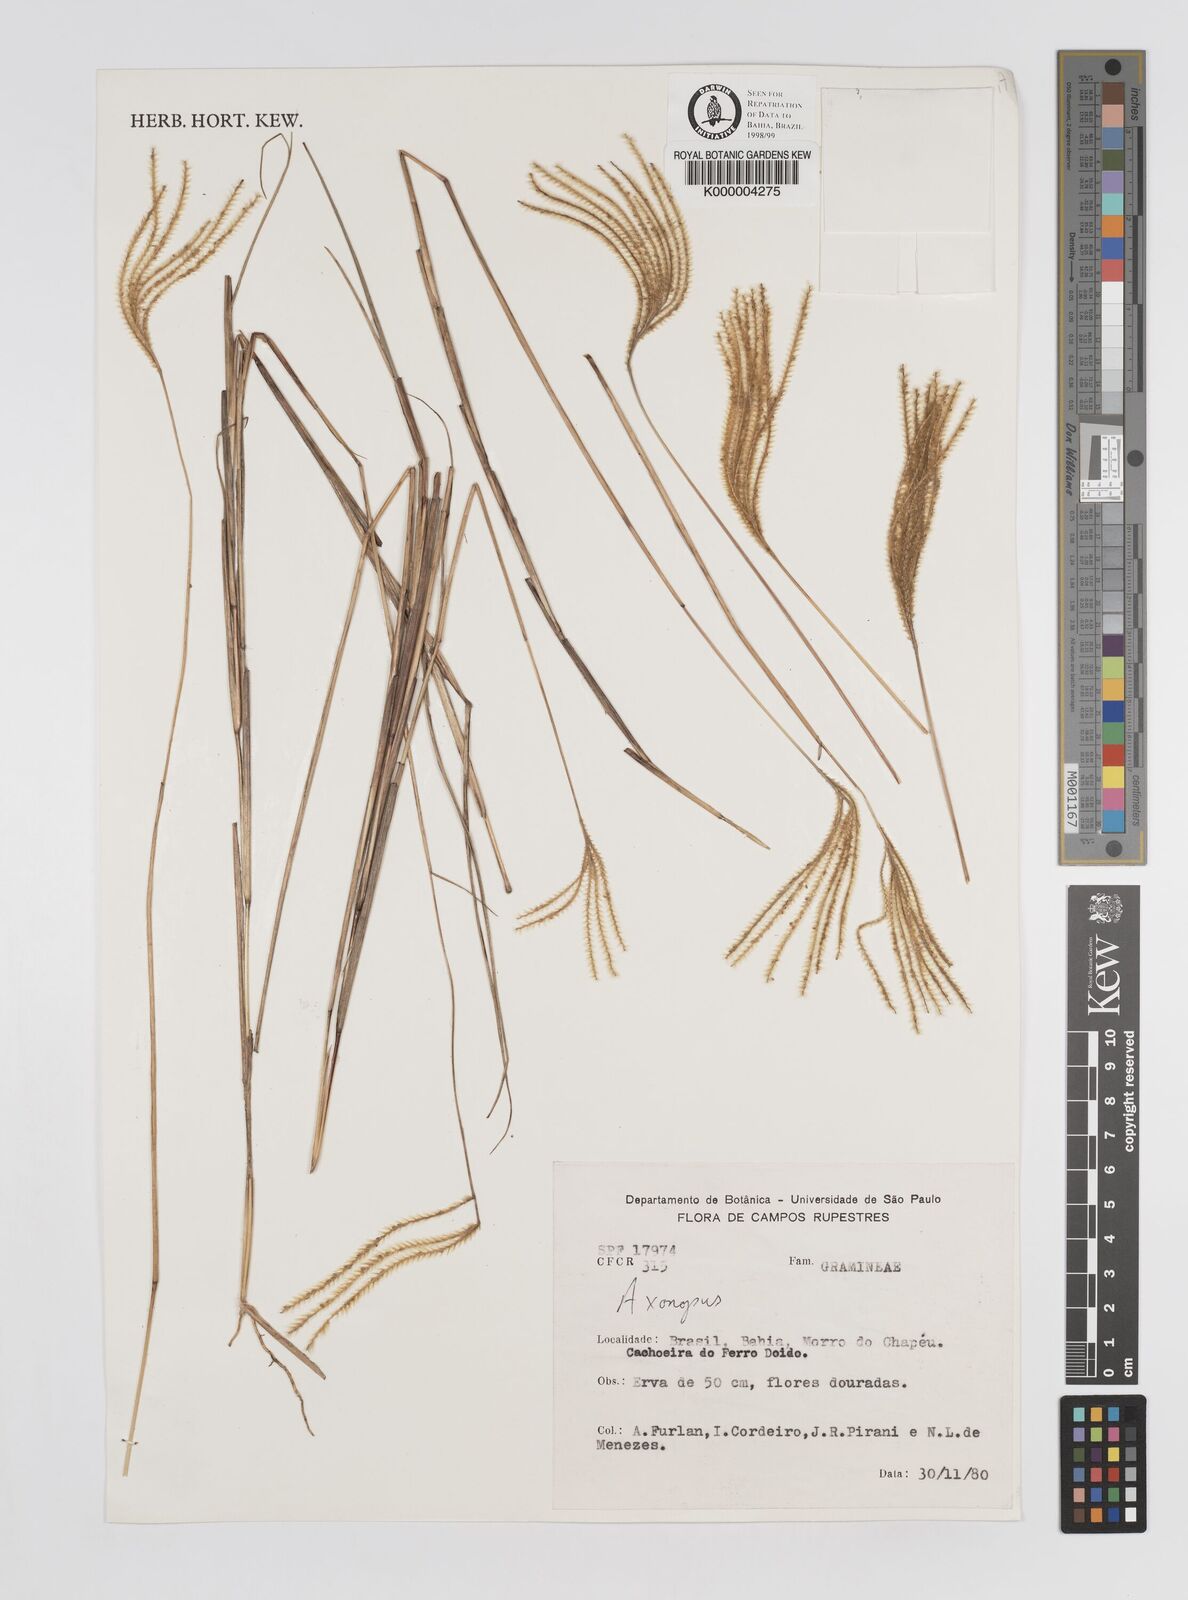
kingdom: Plantae
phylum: Tracheophyta
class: Liliopsida
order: Poales
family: Poaceae
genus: Axonopus
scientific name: Axonopus aureus
